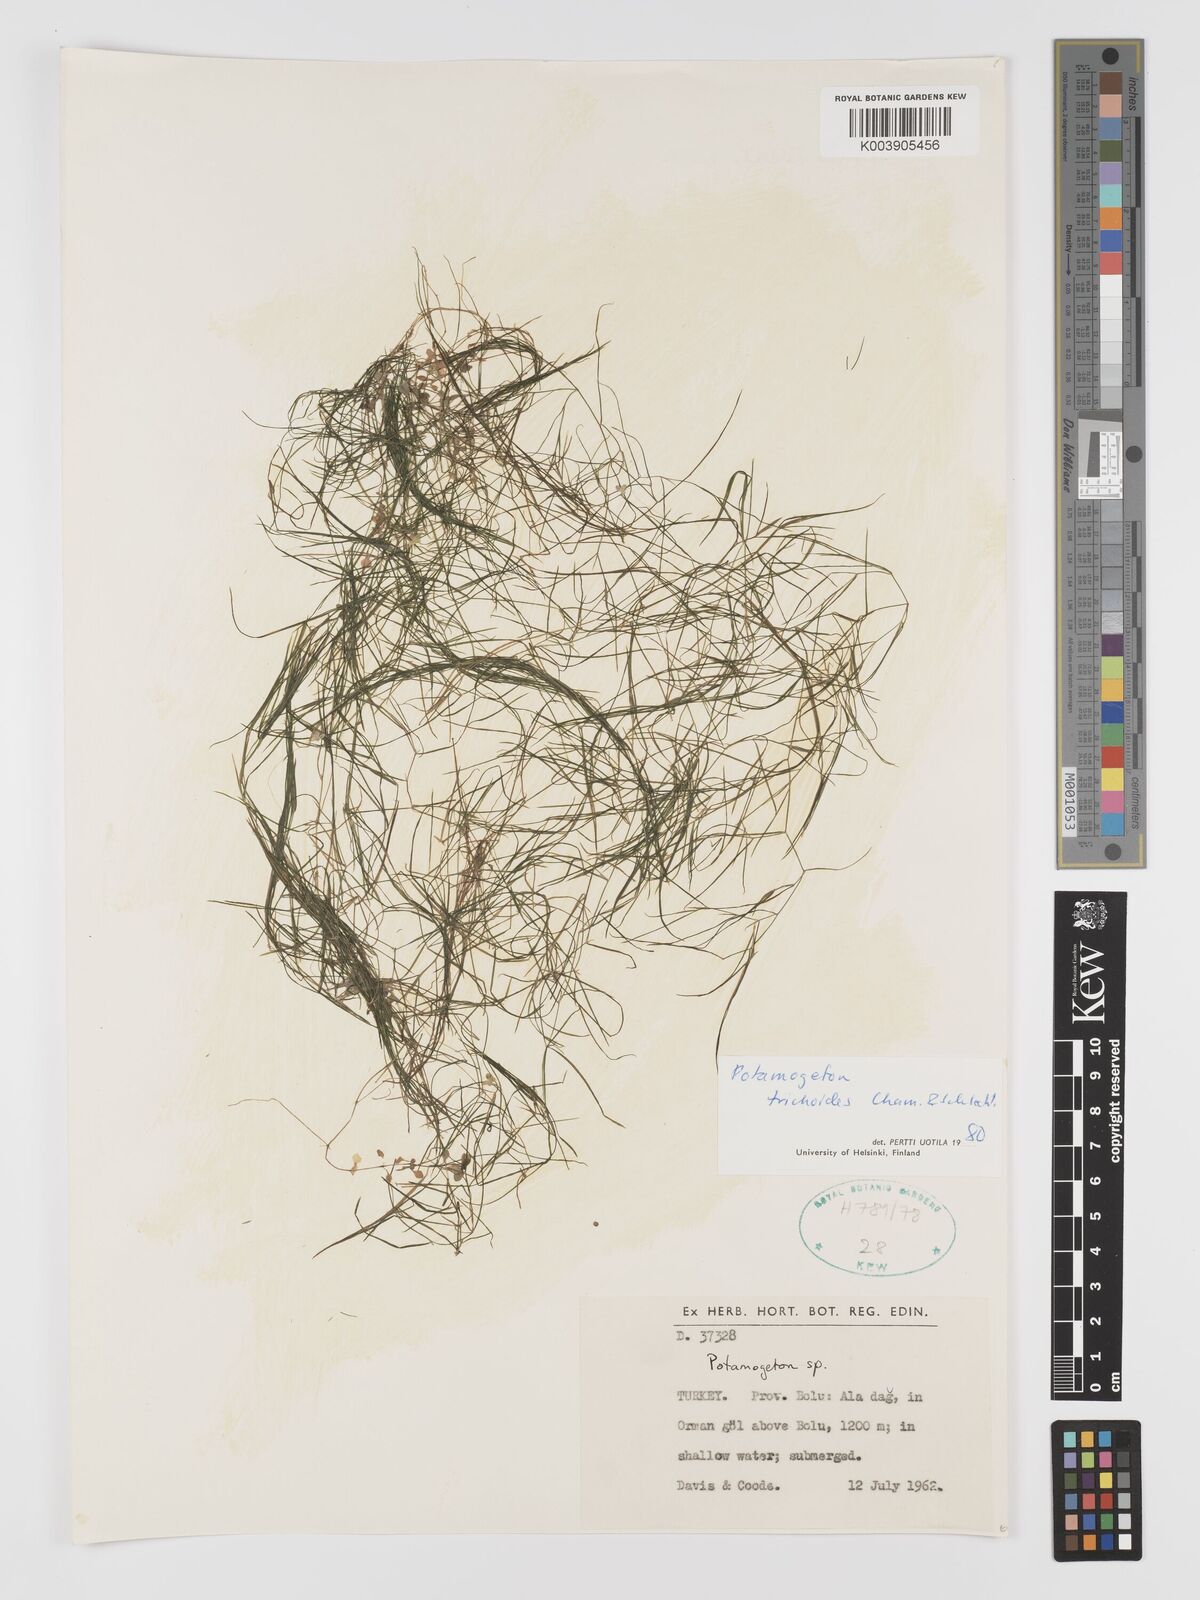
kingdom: Plantae
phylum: Tracheophyta
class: Liliopsida
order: Alismatales
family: Potamogetonaceae
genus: Potamogeton
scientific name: Potamogeton trichoides
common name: Hairlike pondweed
